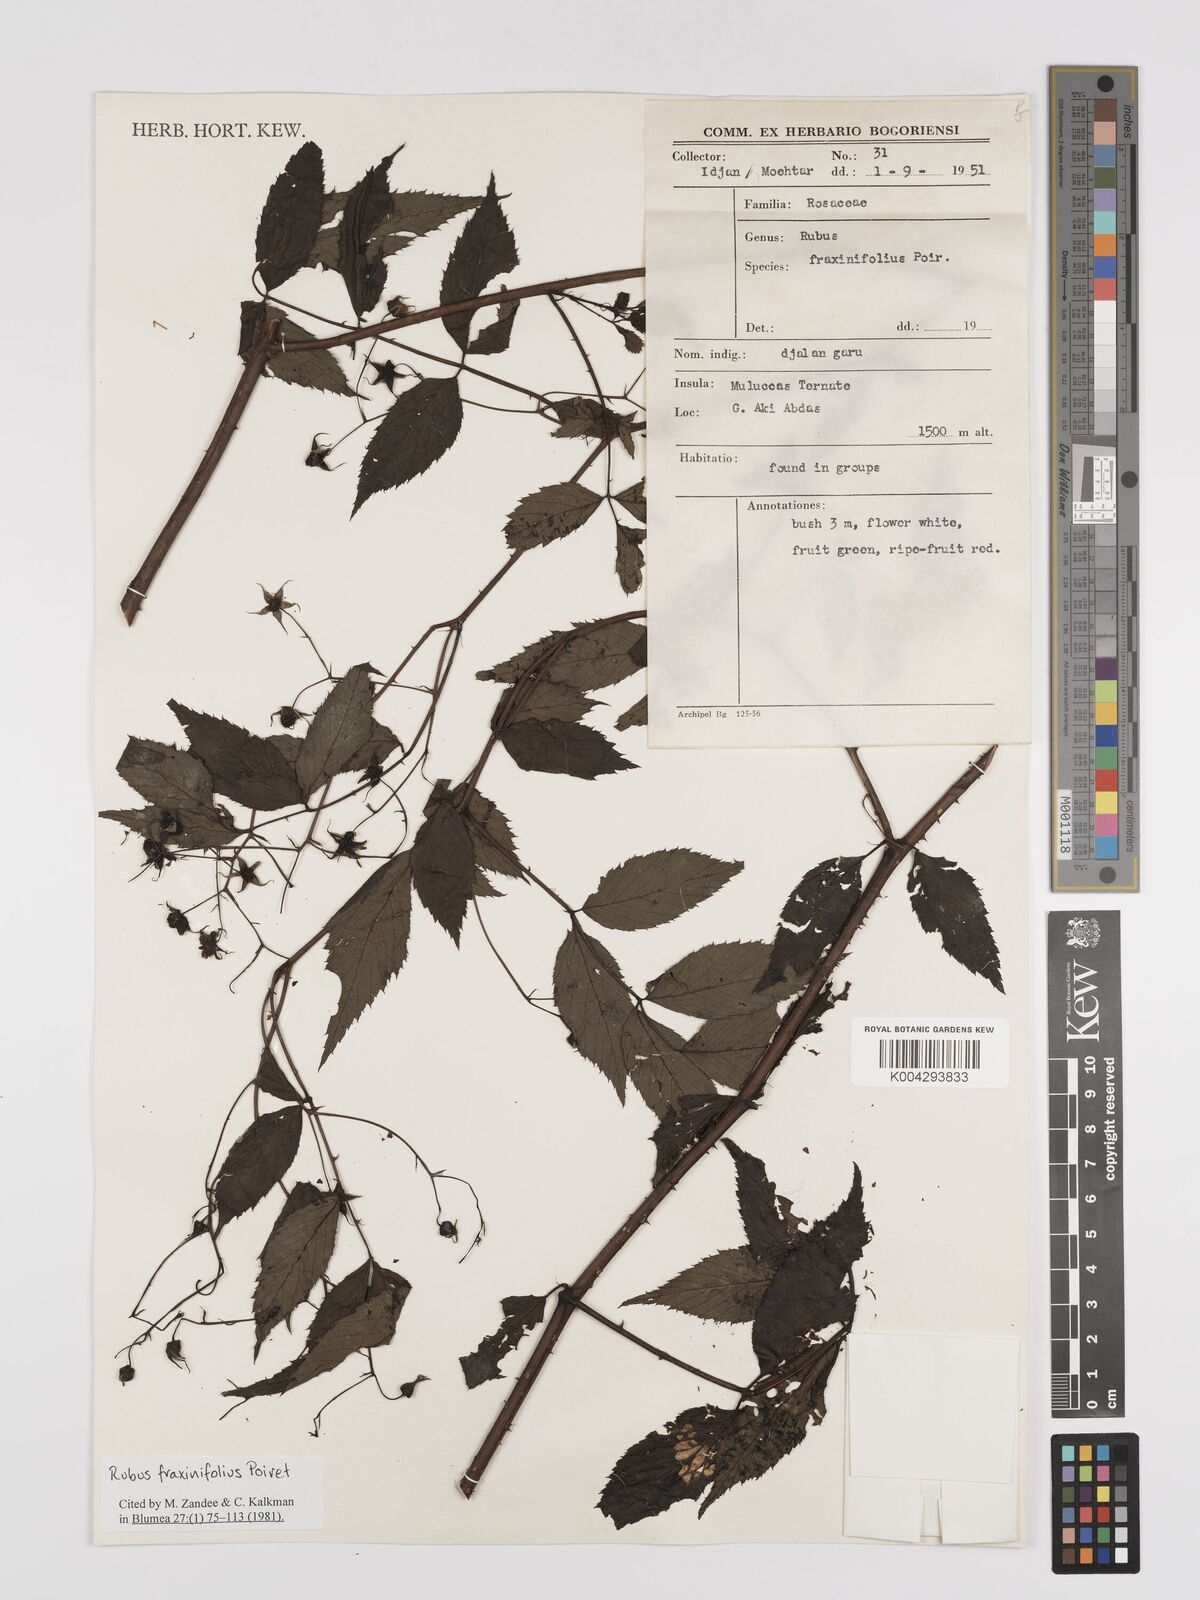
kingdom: Plantae
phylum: Tracheophyta
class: Magnoliopsida
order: Rosales
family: Rosaceae
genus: Rubus
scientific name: Rubus fraxinifolius
